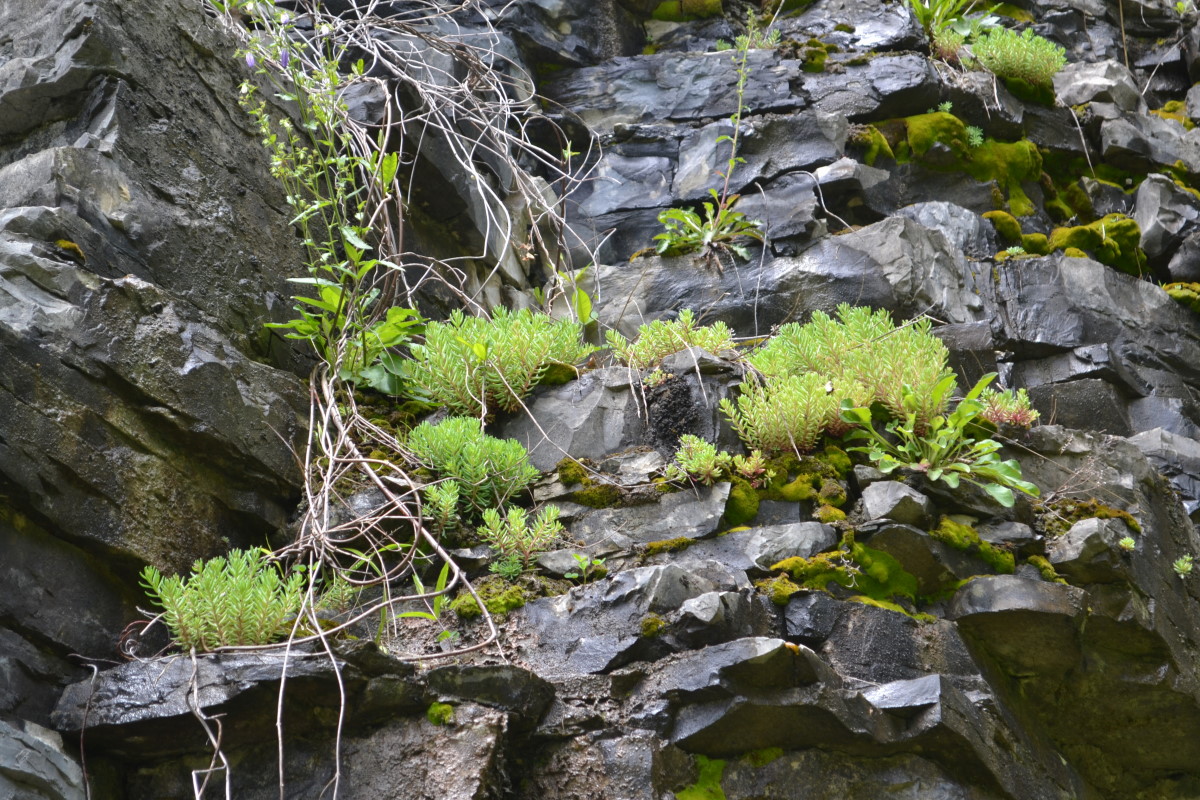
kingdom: Plantae
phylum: Tracheophyta
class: Magnoliopsida
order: Saxifragales
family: Crassulaceae
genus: Sedum
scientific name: Sedum hispanicum
